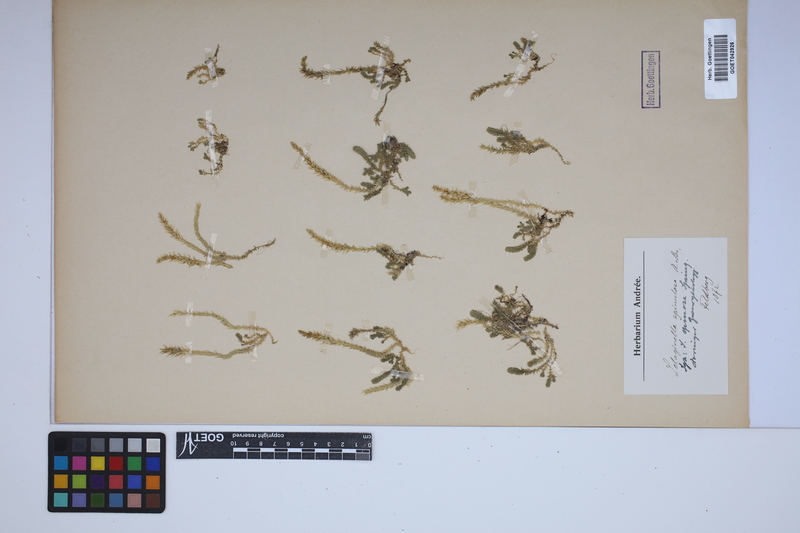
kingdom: Plantae
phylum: Tracheophyta
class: Lycopodiopsida
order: Selaginellales
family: Selaginellaceae
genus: Selaginella
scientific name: Selaginella selaginoides
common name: Prickly mountain-moss
